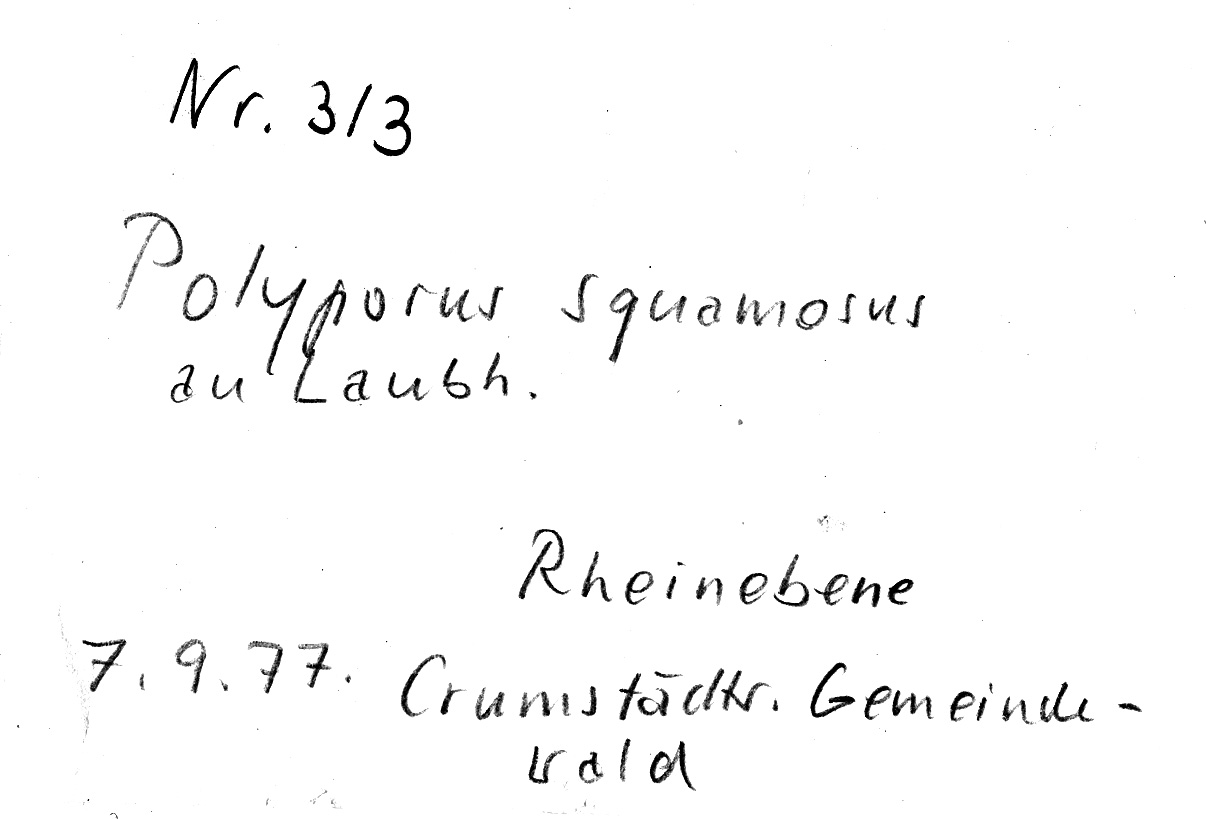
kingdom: Fungi
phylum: Basidiomycota
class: Agaricomycetes
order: Polyporales
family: Polyporaceae
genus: Cerioporus
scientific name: Cerioporus squamosus
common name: Dryad's saddle
